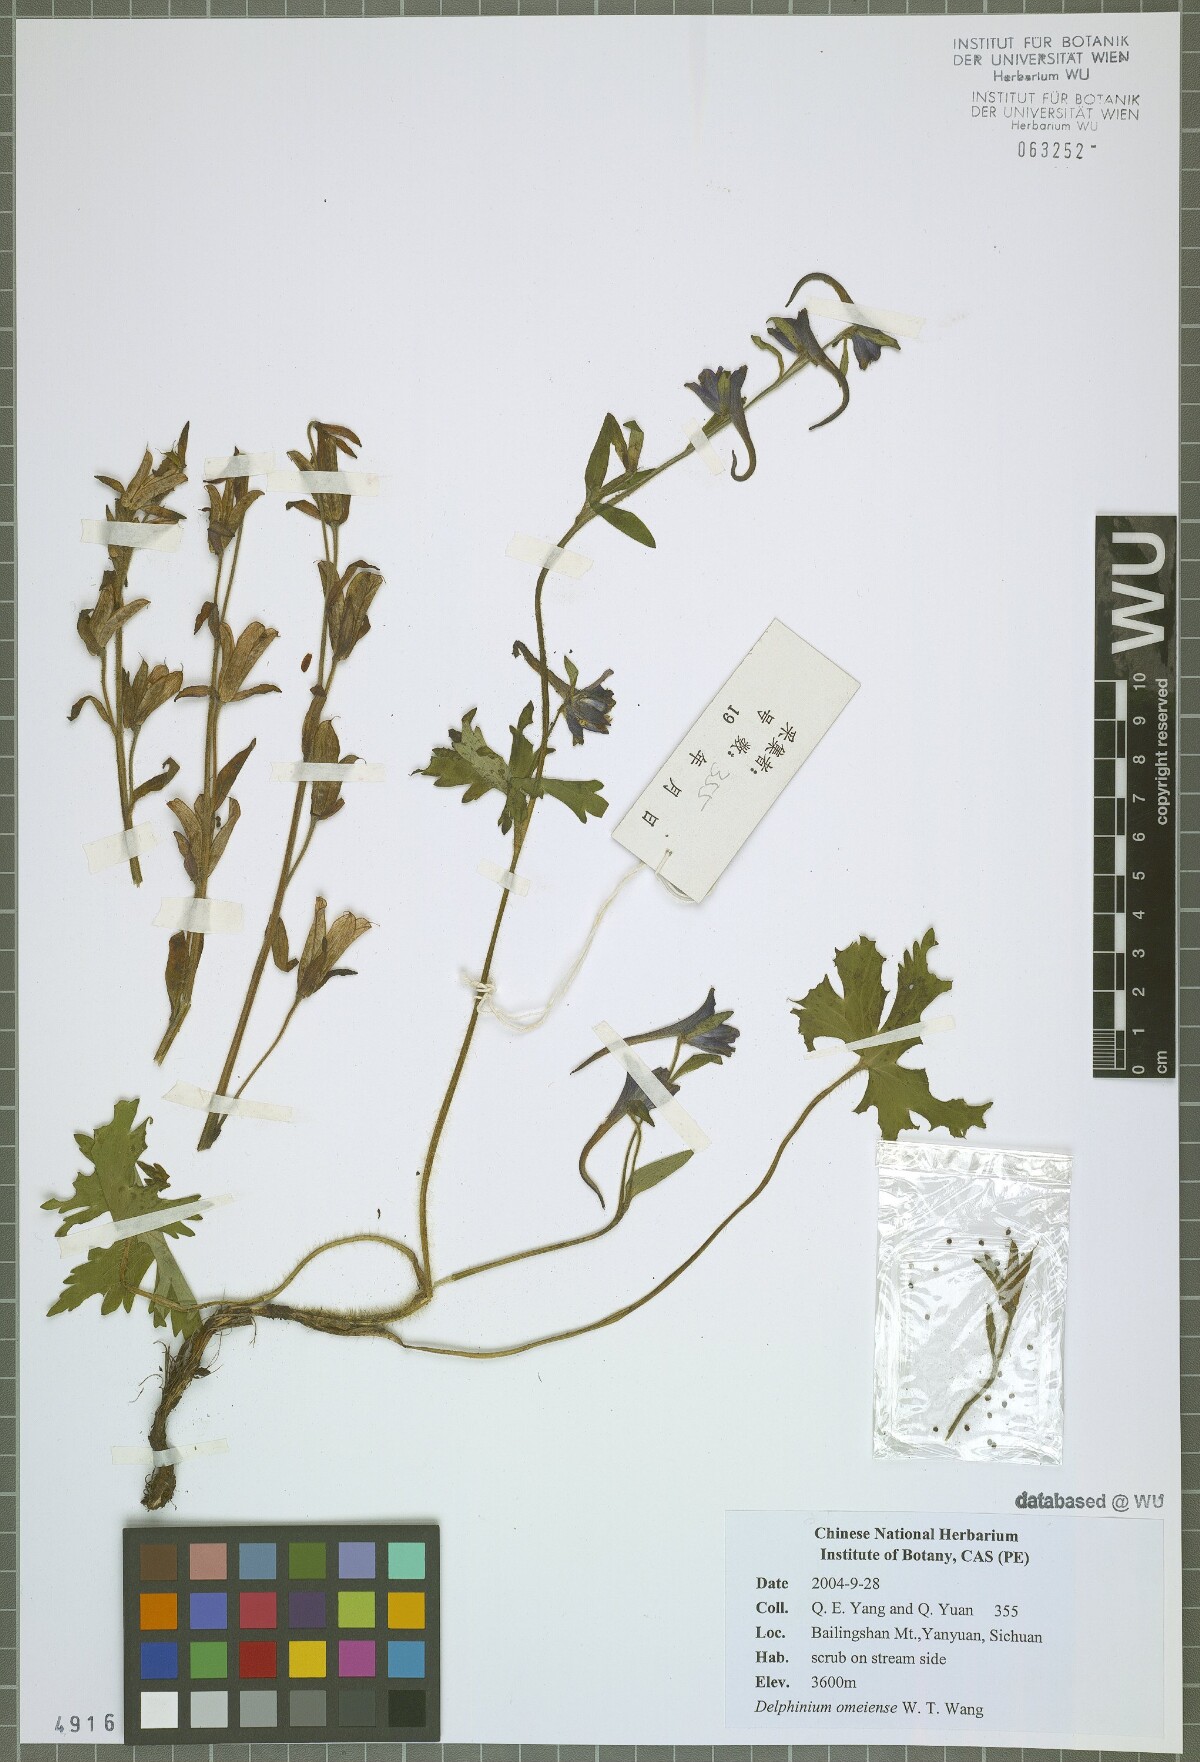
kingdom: Plantae
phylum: Tracheophyta
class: Magnoliopsida
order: Ranunculales
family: Ranunculaceae
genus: Delphinium
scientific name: Delphinium omeiense
